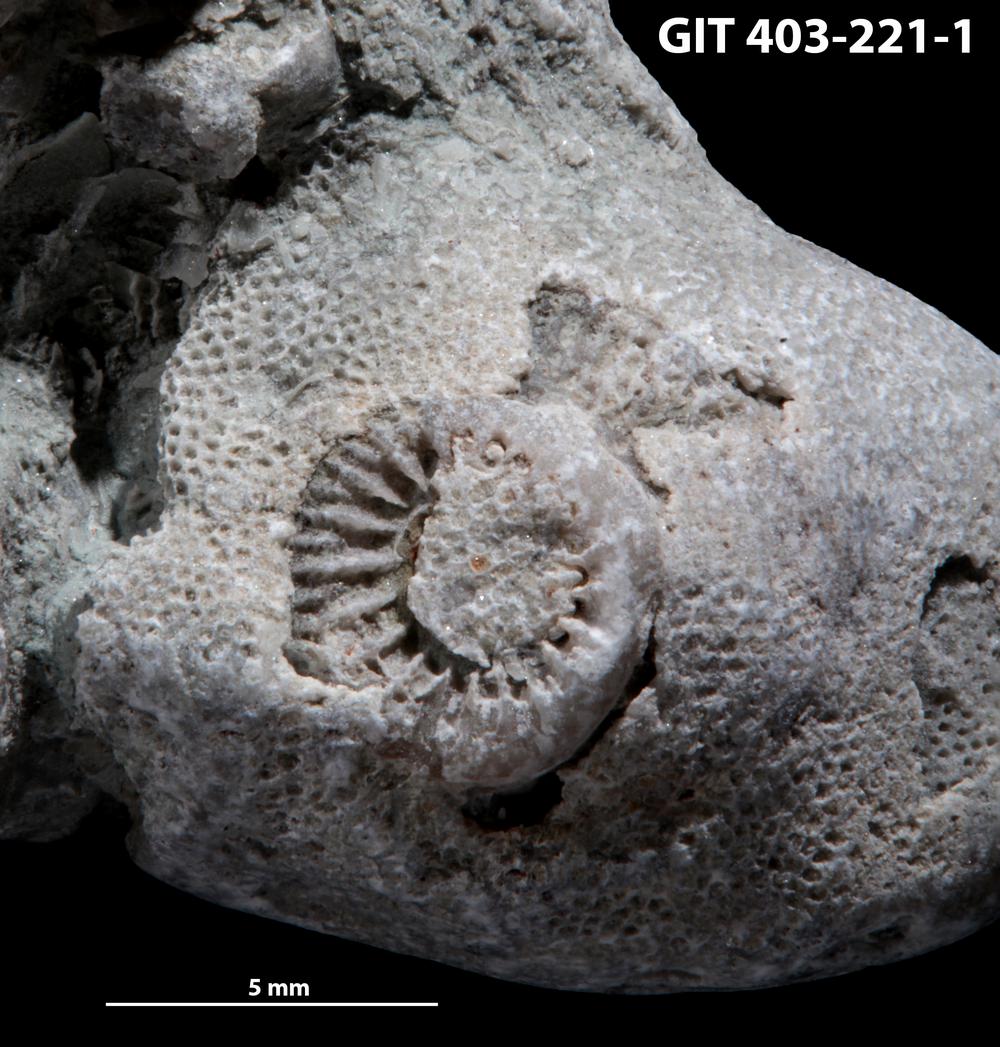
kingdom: Animalia
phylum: Bryozoa
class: Stenolaemata
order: Cystoporida
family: Fistuliporidae
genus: Fistulipora
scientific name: Fistulipora przhidolensis
